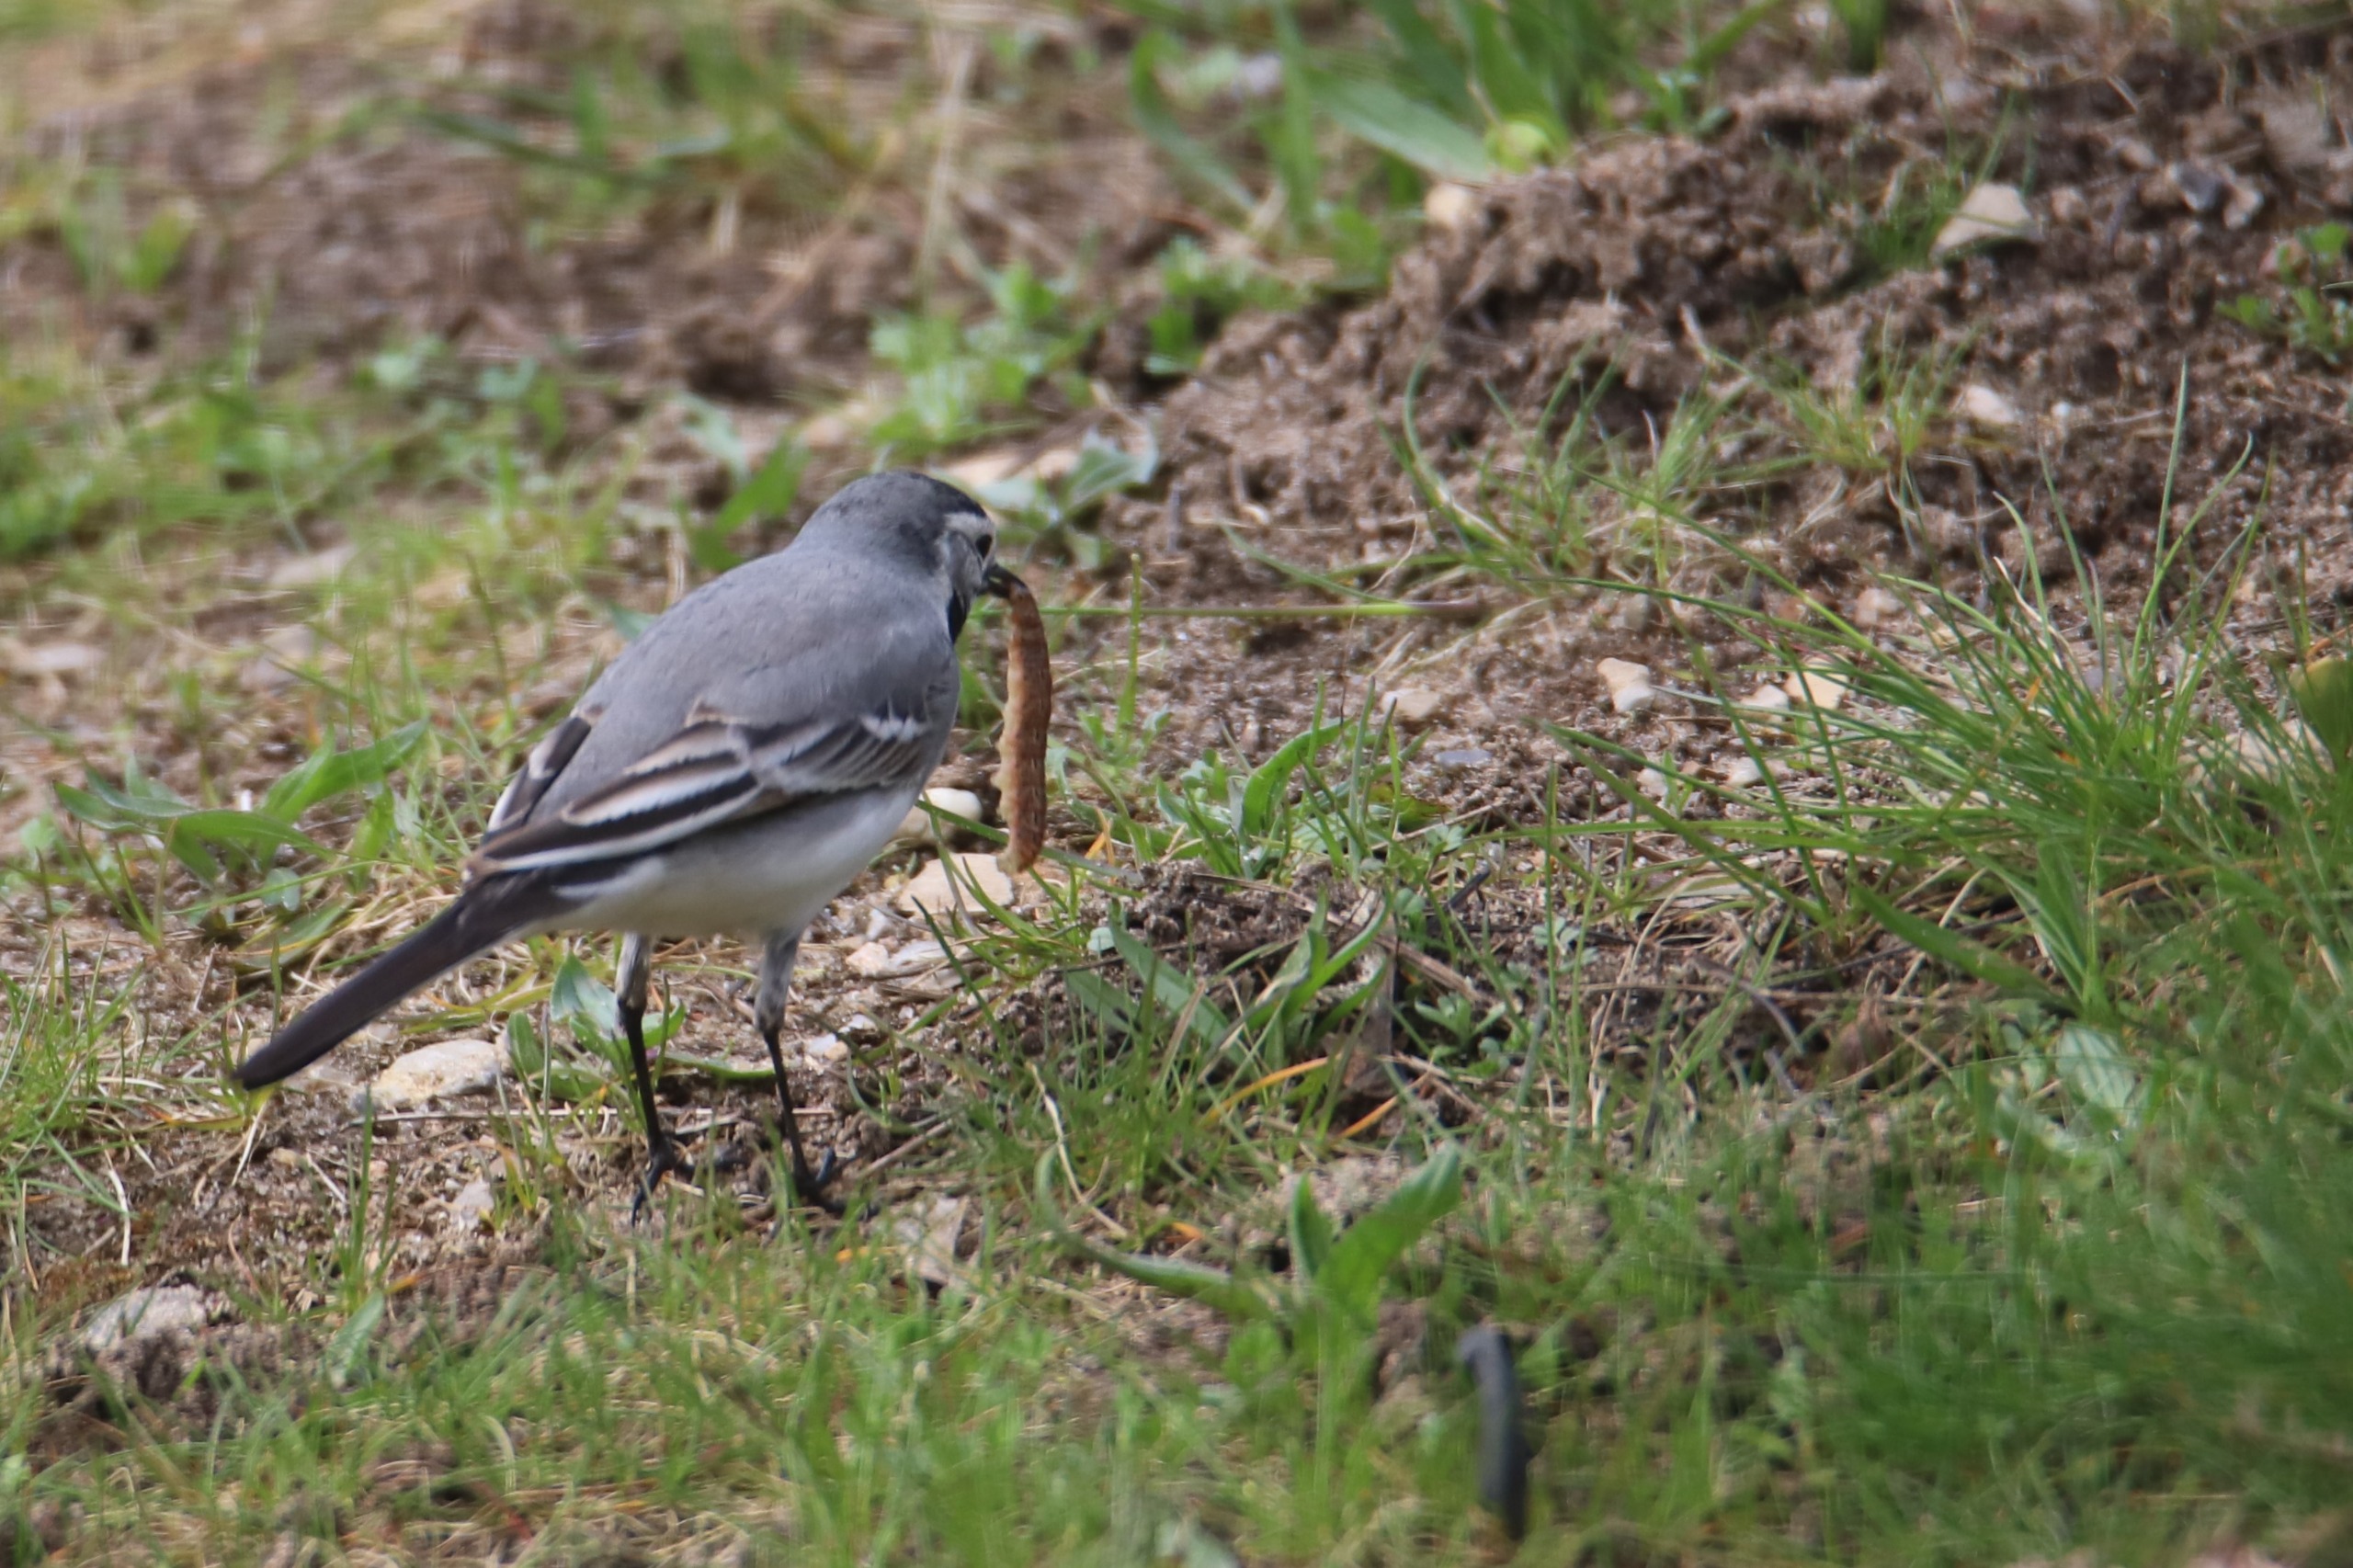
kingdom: Animalia
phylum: Chordata
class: Aves
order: Passeriformes
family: Motacillidae
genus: Motacilla
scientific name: Motacilla alba
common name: Hvid vipstjert
